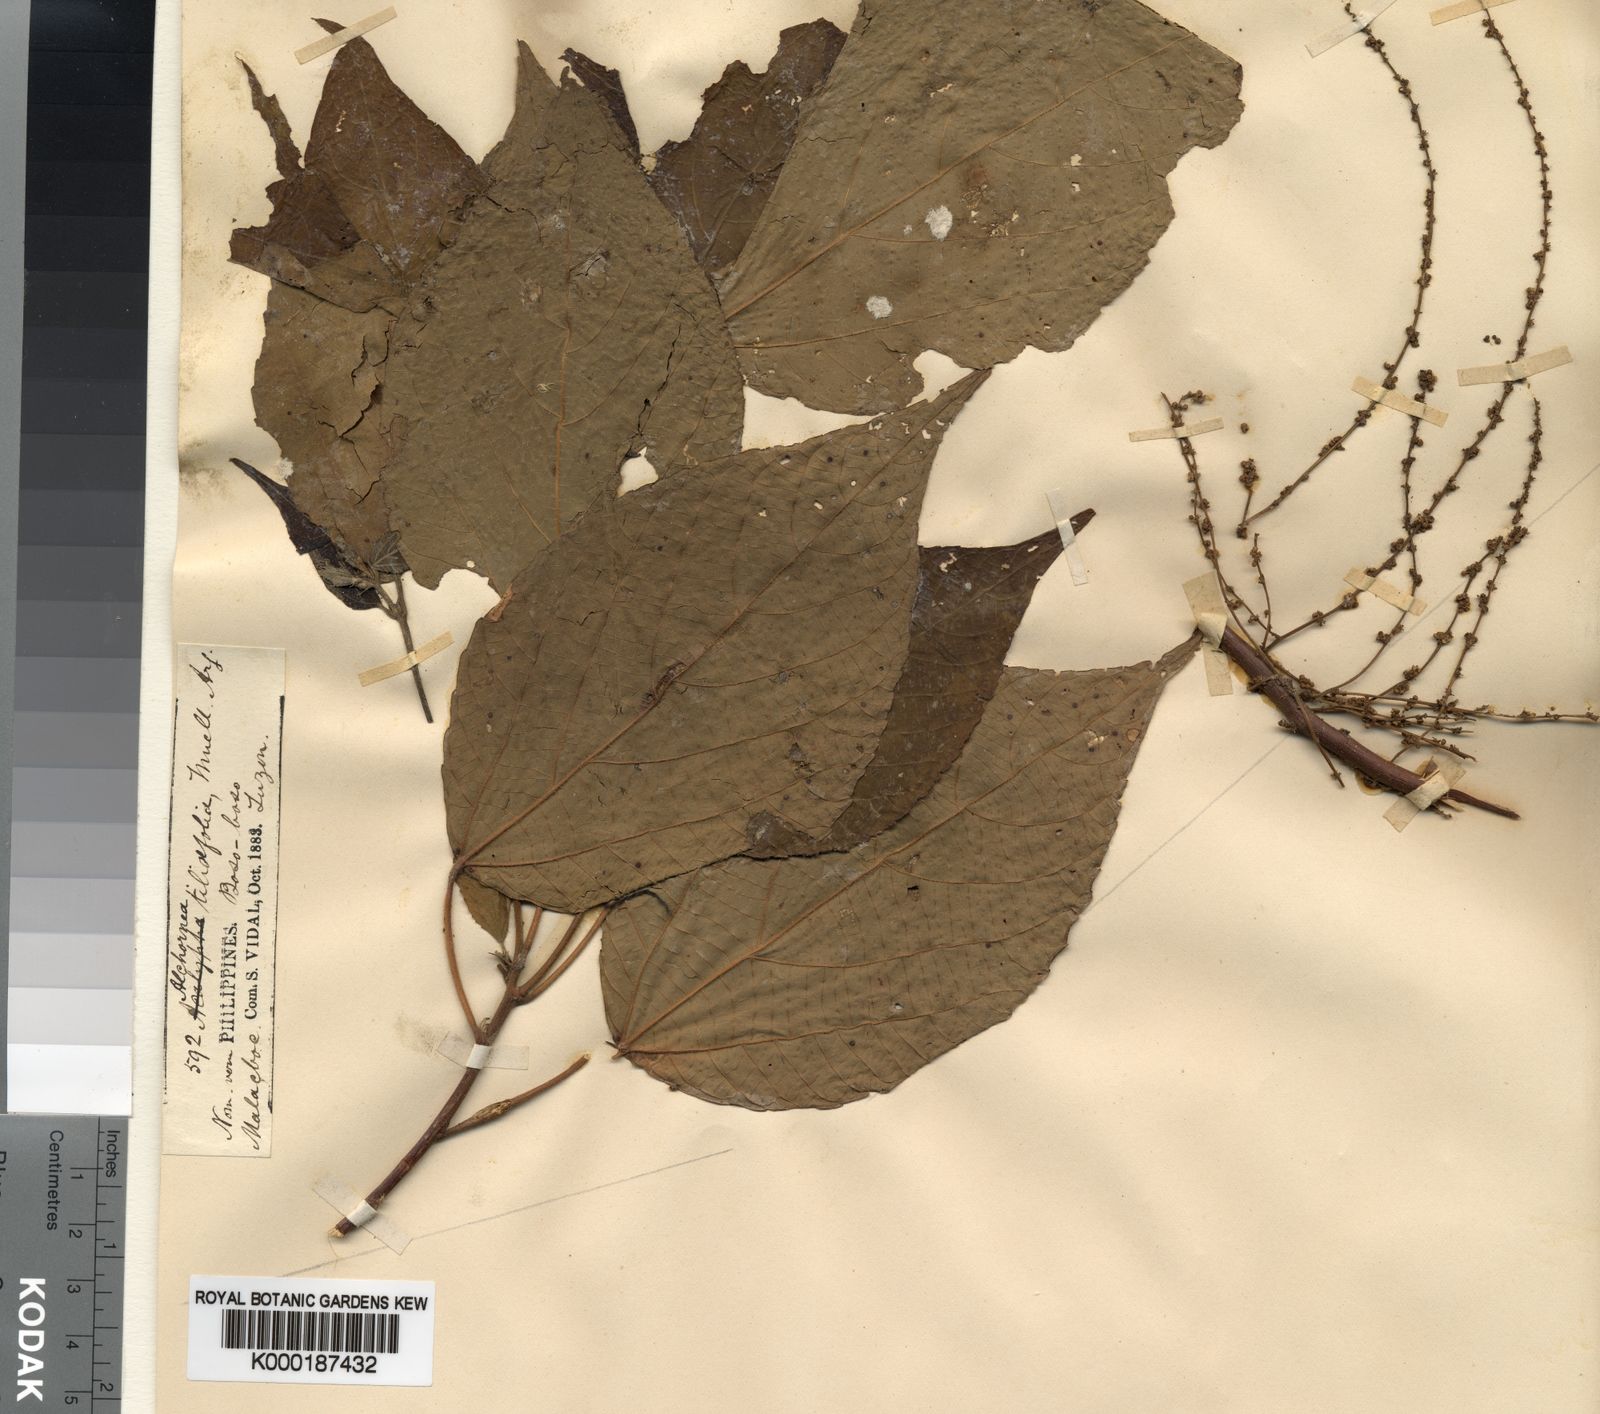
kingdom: Plantae
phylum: Tracheophyta
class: Magnoliopsida
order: Malpighiales
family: Euphorbiaceae
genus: Alchornea
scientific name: Alchornea parviflora
